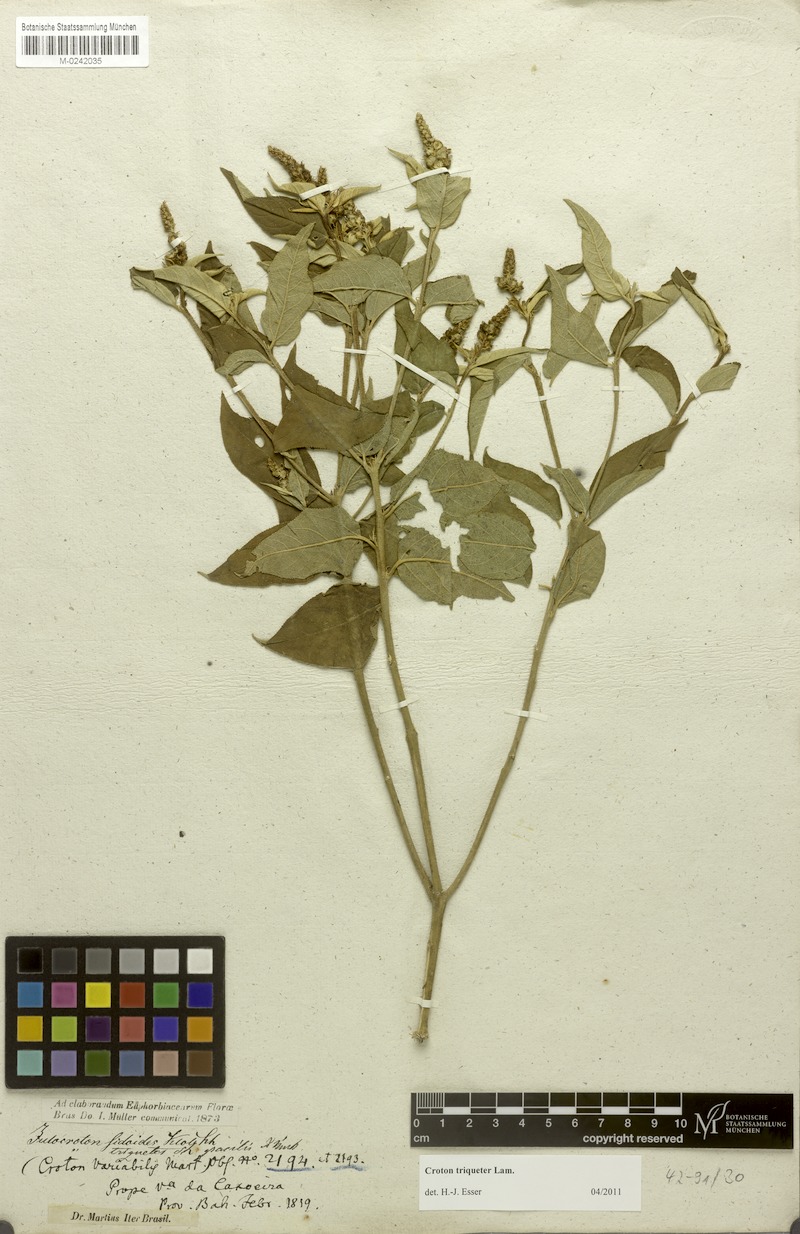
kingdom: Plantae
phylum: Tracheophyta
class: Magnoliopsida
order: Malpighiales
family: Euphorbiaceae
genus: Croton
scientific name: Croton triqueter
